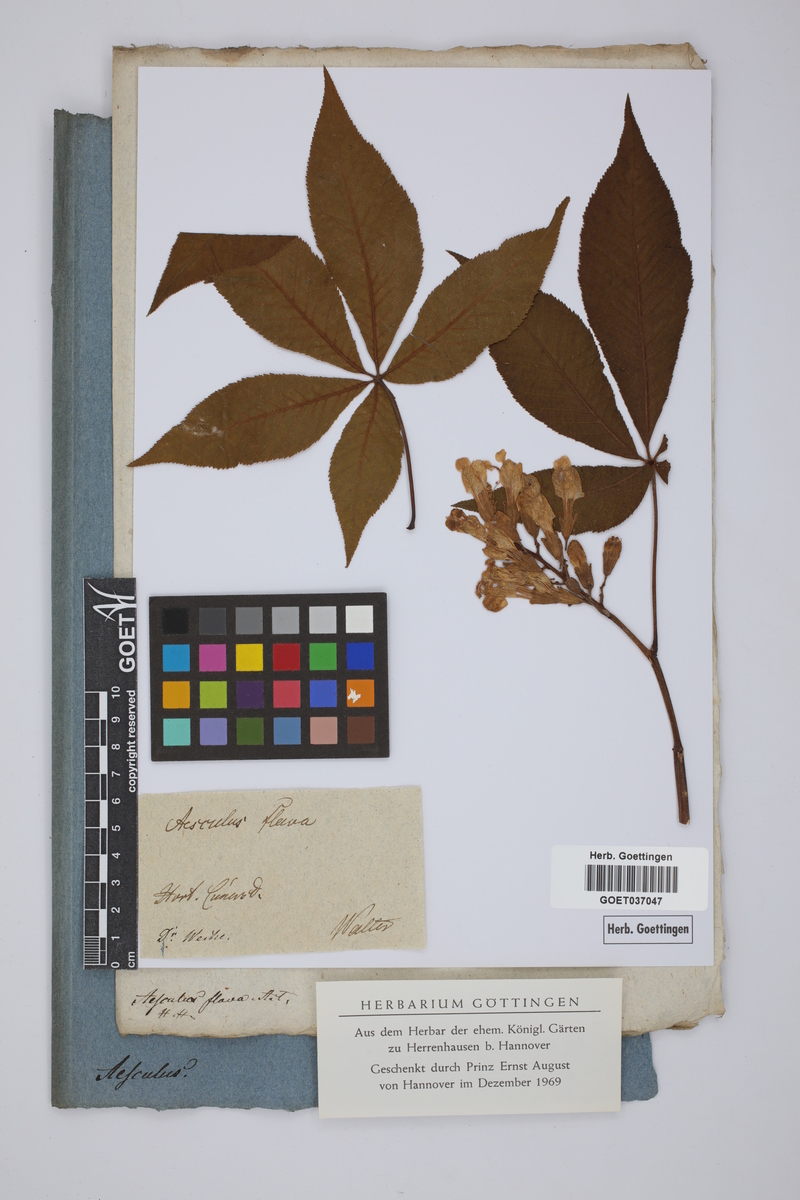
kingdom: Plantae
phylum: Tracheophyta
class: Magnoliopsida
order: Sapindales
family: Sapindaceae
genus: Aesculus
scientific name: Aesculus flava
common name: Yellow buckeye
